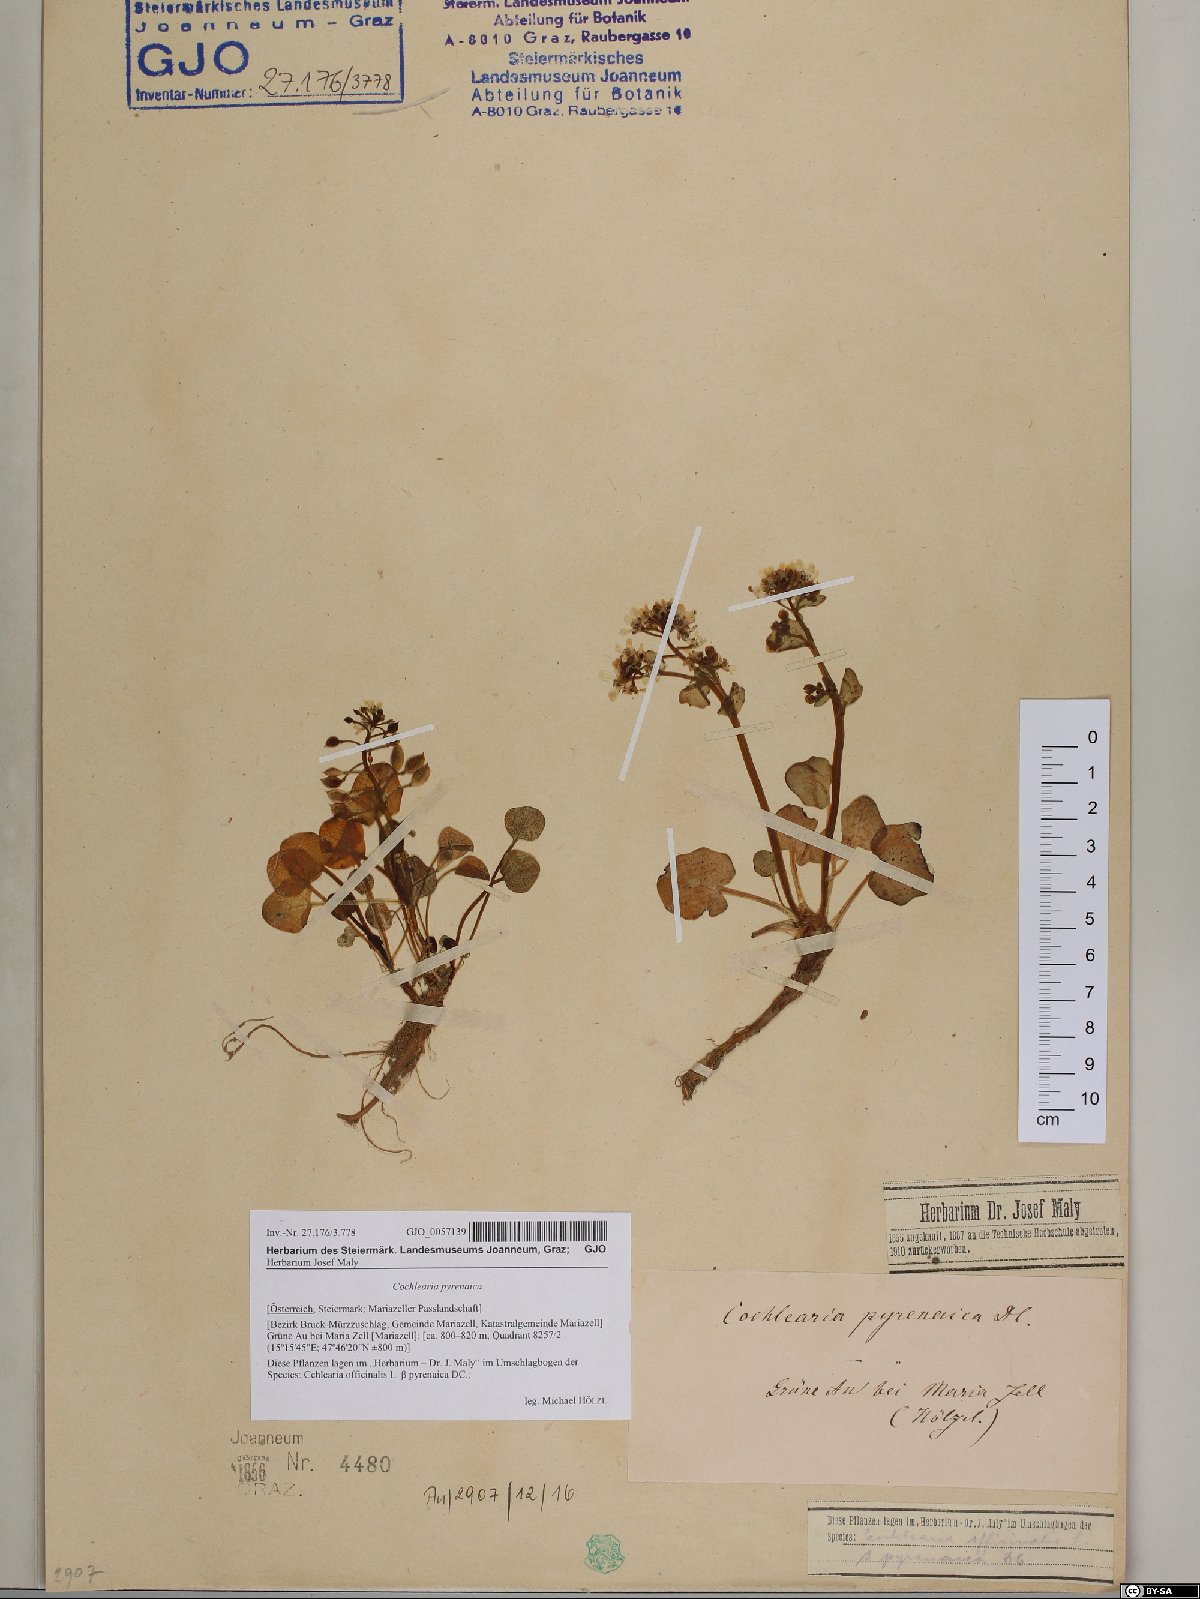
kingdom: Plantae
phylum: Tracheophyta
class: Magnoliopsida
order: Brassicales
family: Brassicaceae
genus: Cochlearia
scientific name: Cochlearia pyrenaica
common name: Upland scurvy-grass
